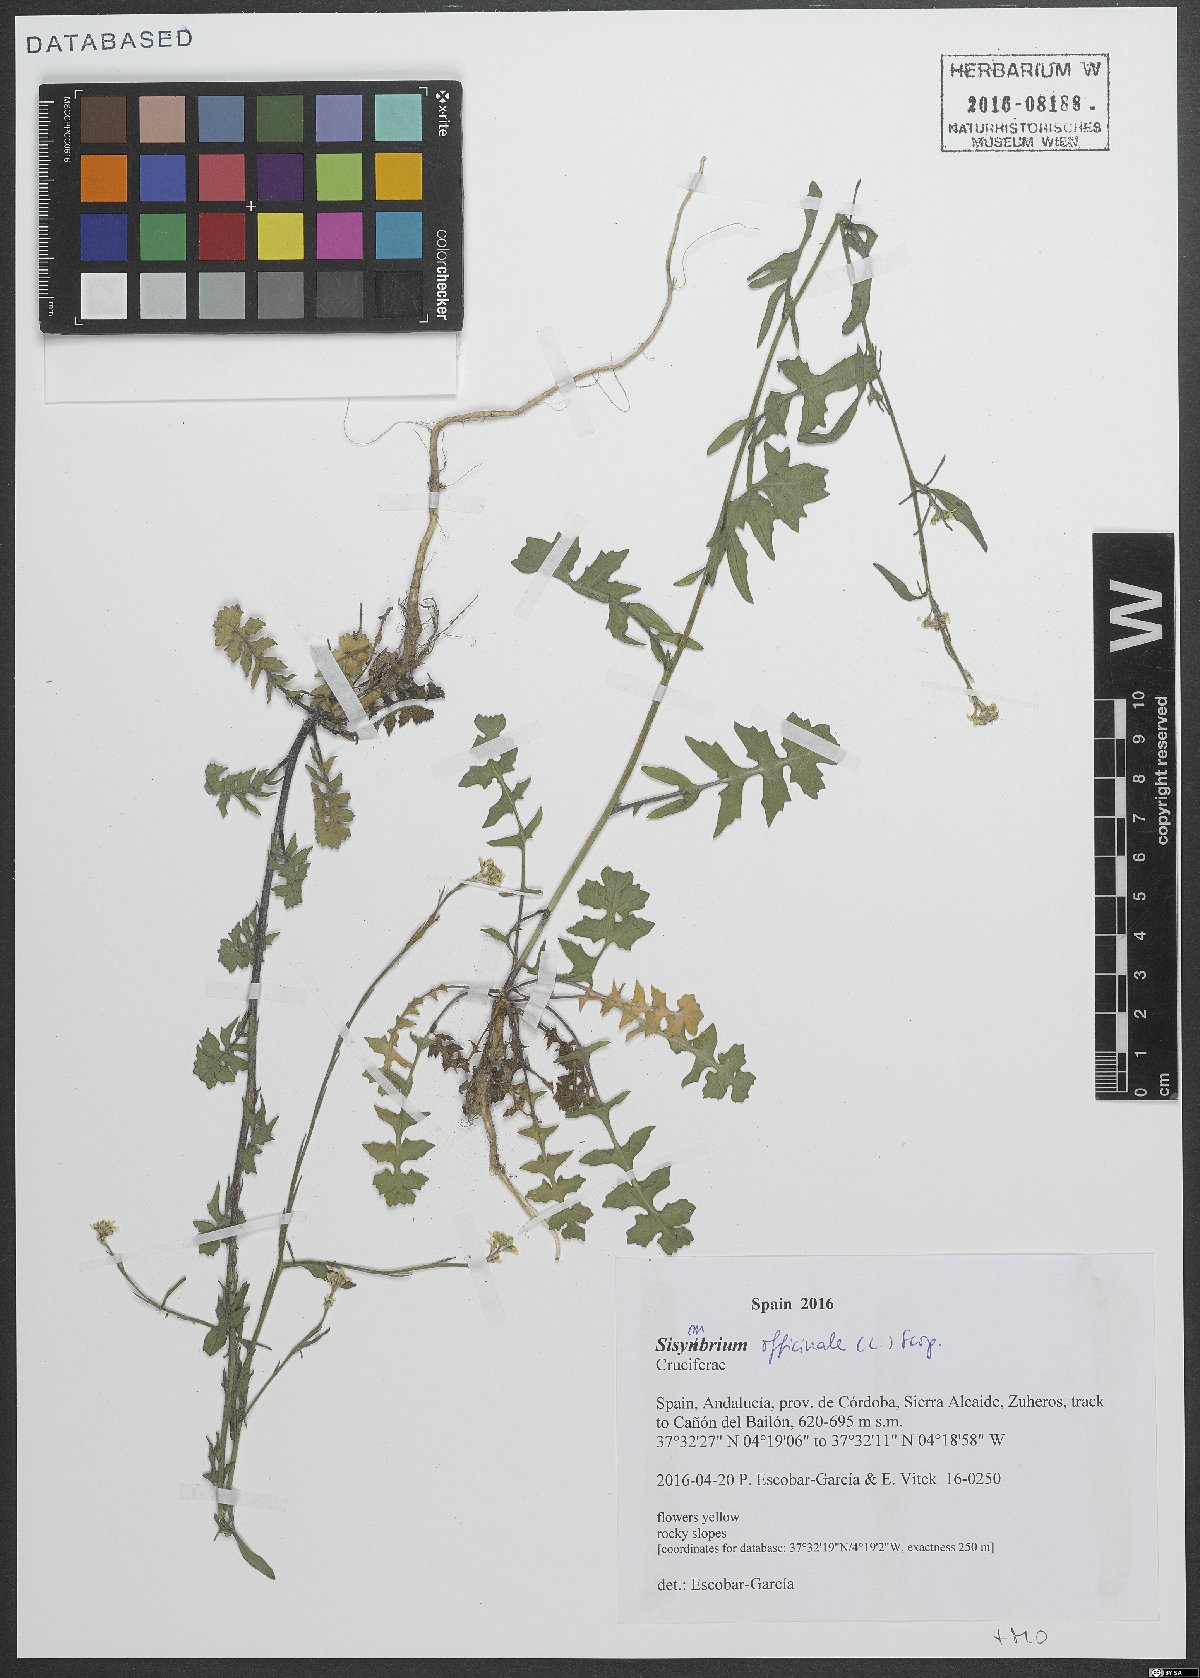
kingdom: Plantae
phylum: Tracheophyta
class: Magnoliopsida
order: Brassicales
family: Brassicaceae
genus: Sisymbrium
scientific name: Sisymbrium officinale
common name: Hedge mustard
